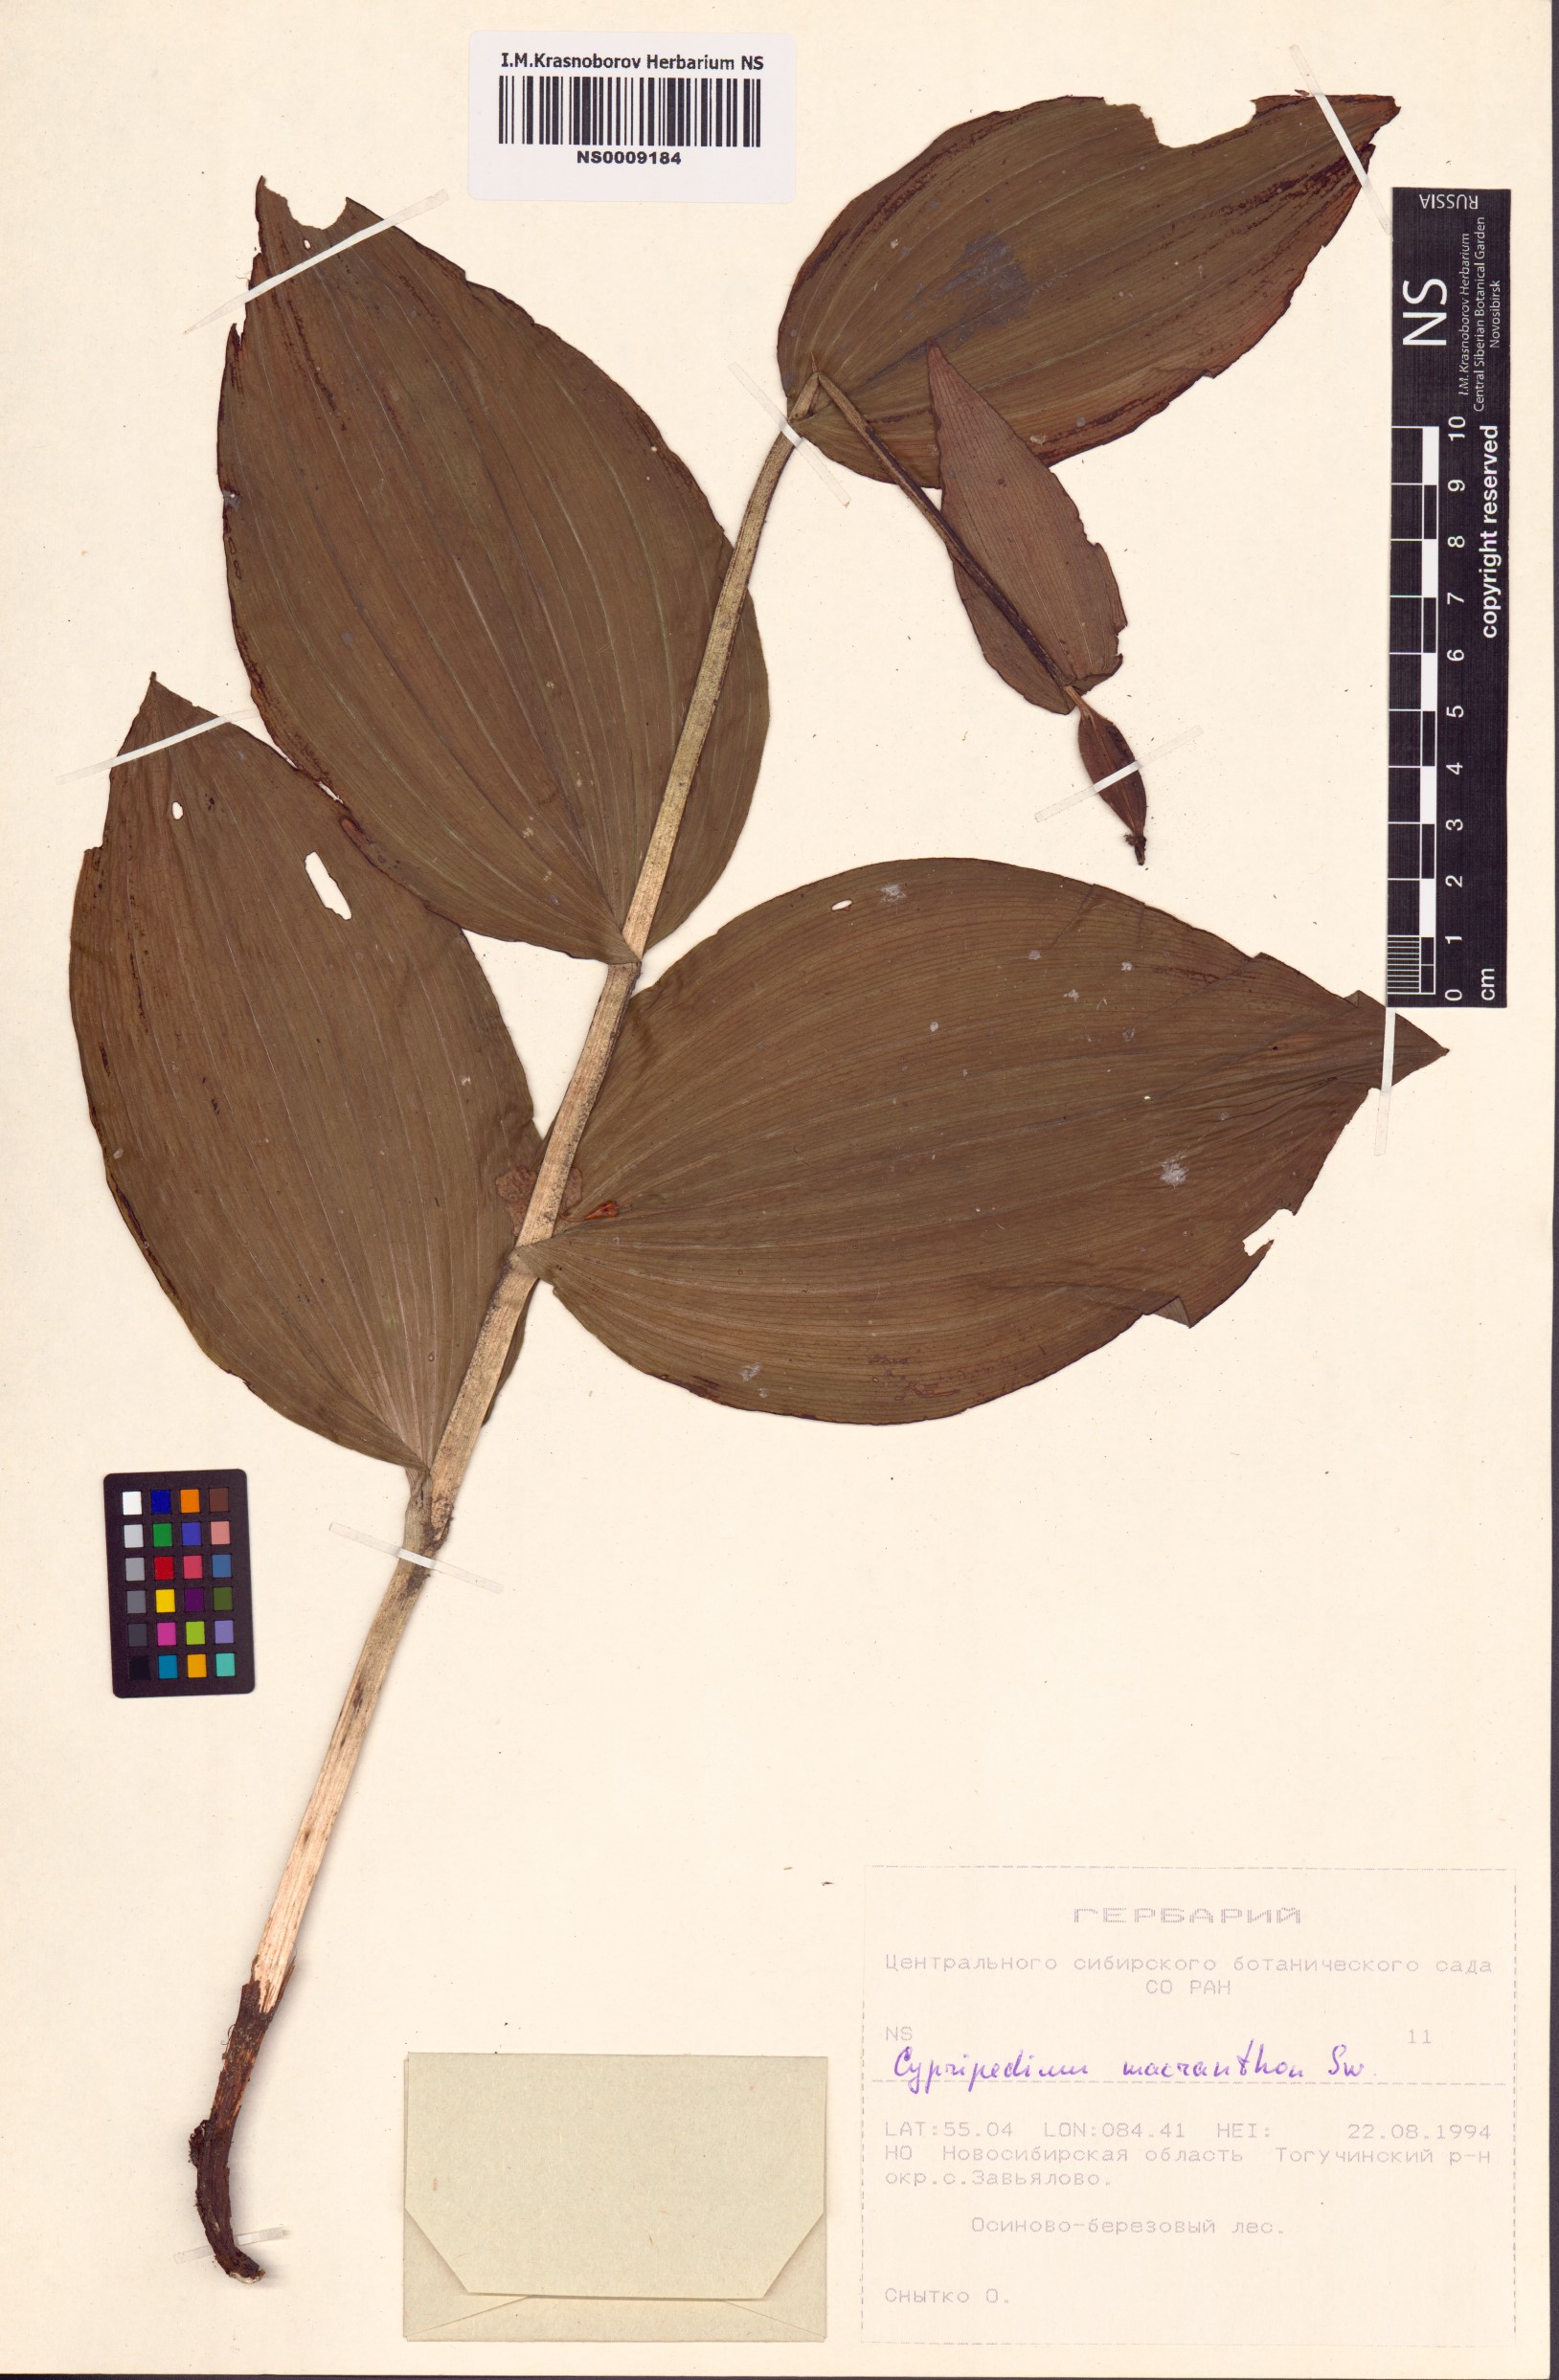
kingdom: Plantae
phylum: Tracheophyta
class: Liliopsida
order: Asparagales
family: Orchidaceae
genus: Cypripedium
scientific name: Cypripedium macranthos
